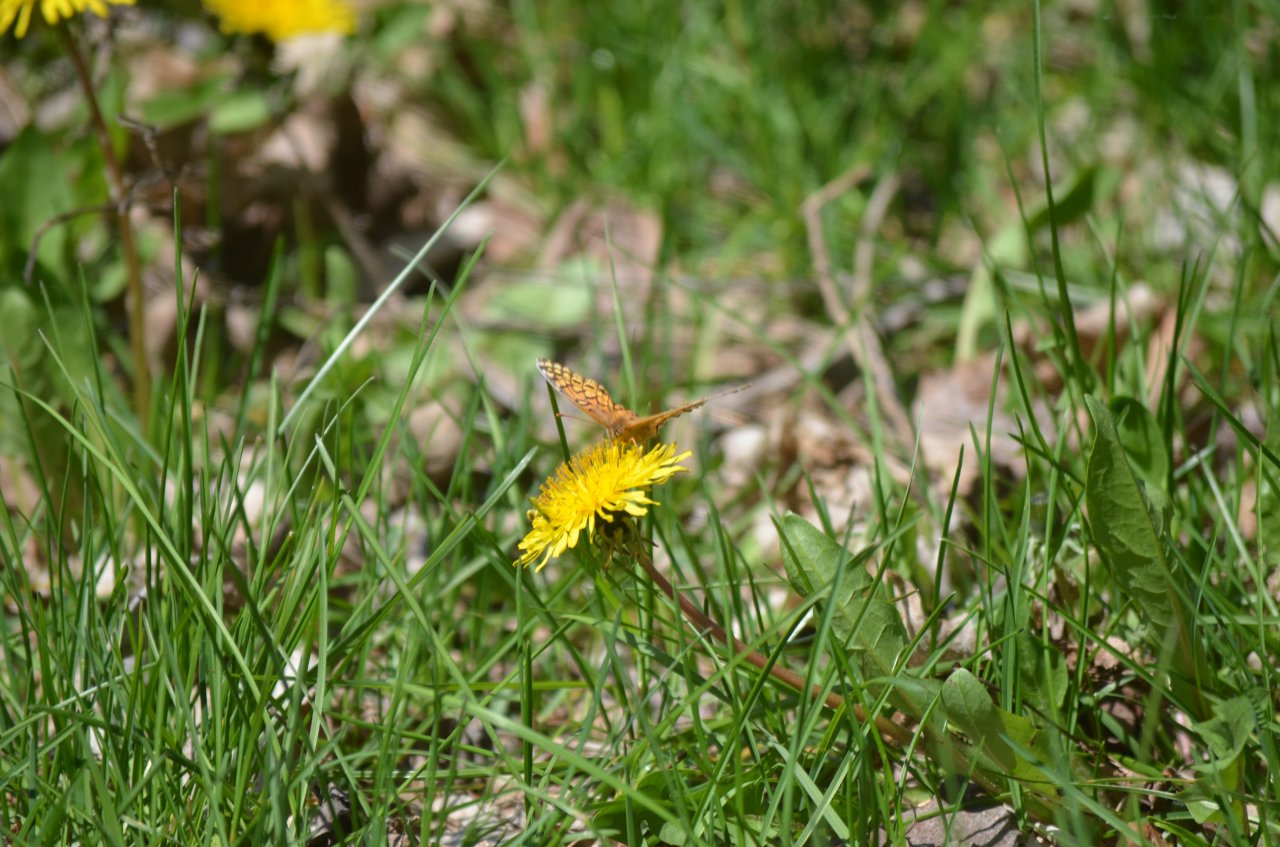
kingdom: Animalia
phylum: Arthropoda
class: Insecta
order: Lepidoptera
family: Nymphalidae
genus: Euptoieta
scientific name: Euptoieta claudia
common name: Variegated Fritillary
